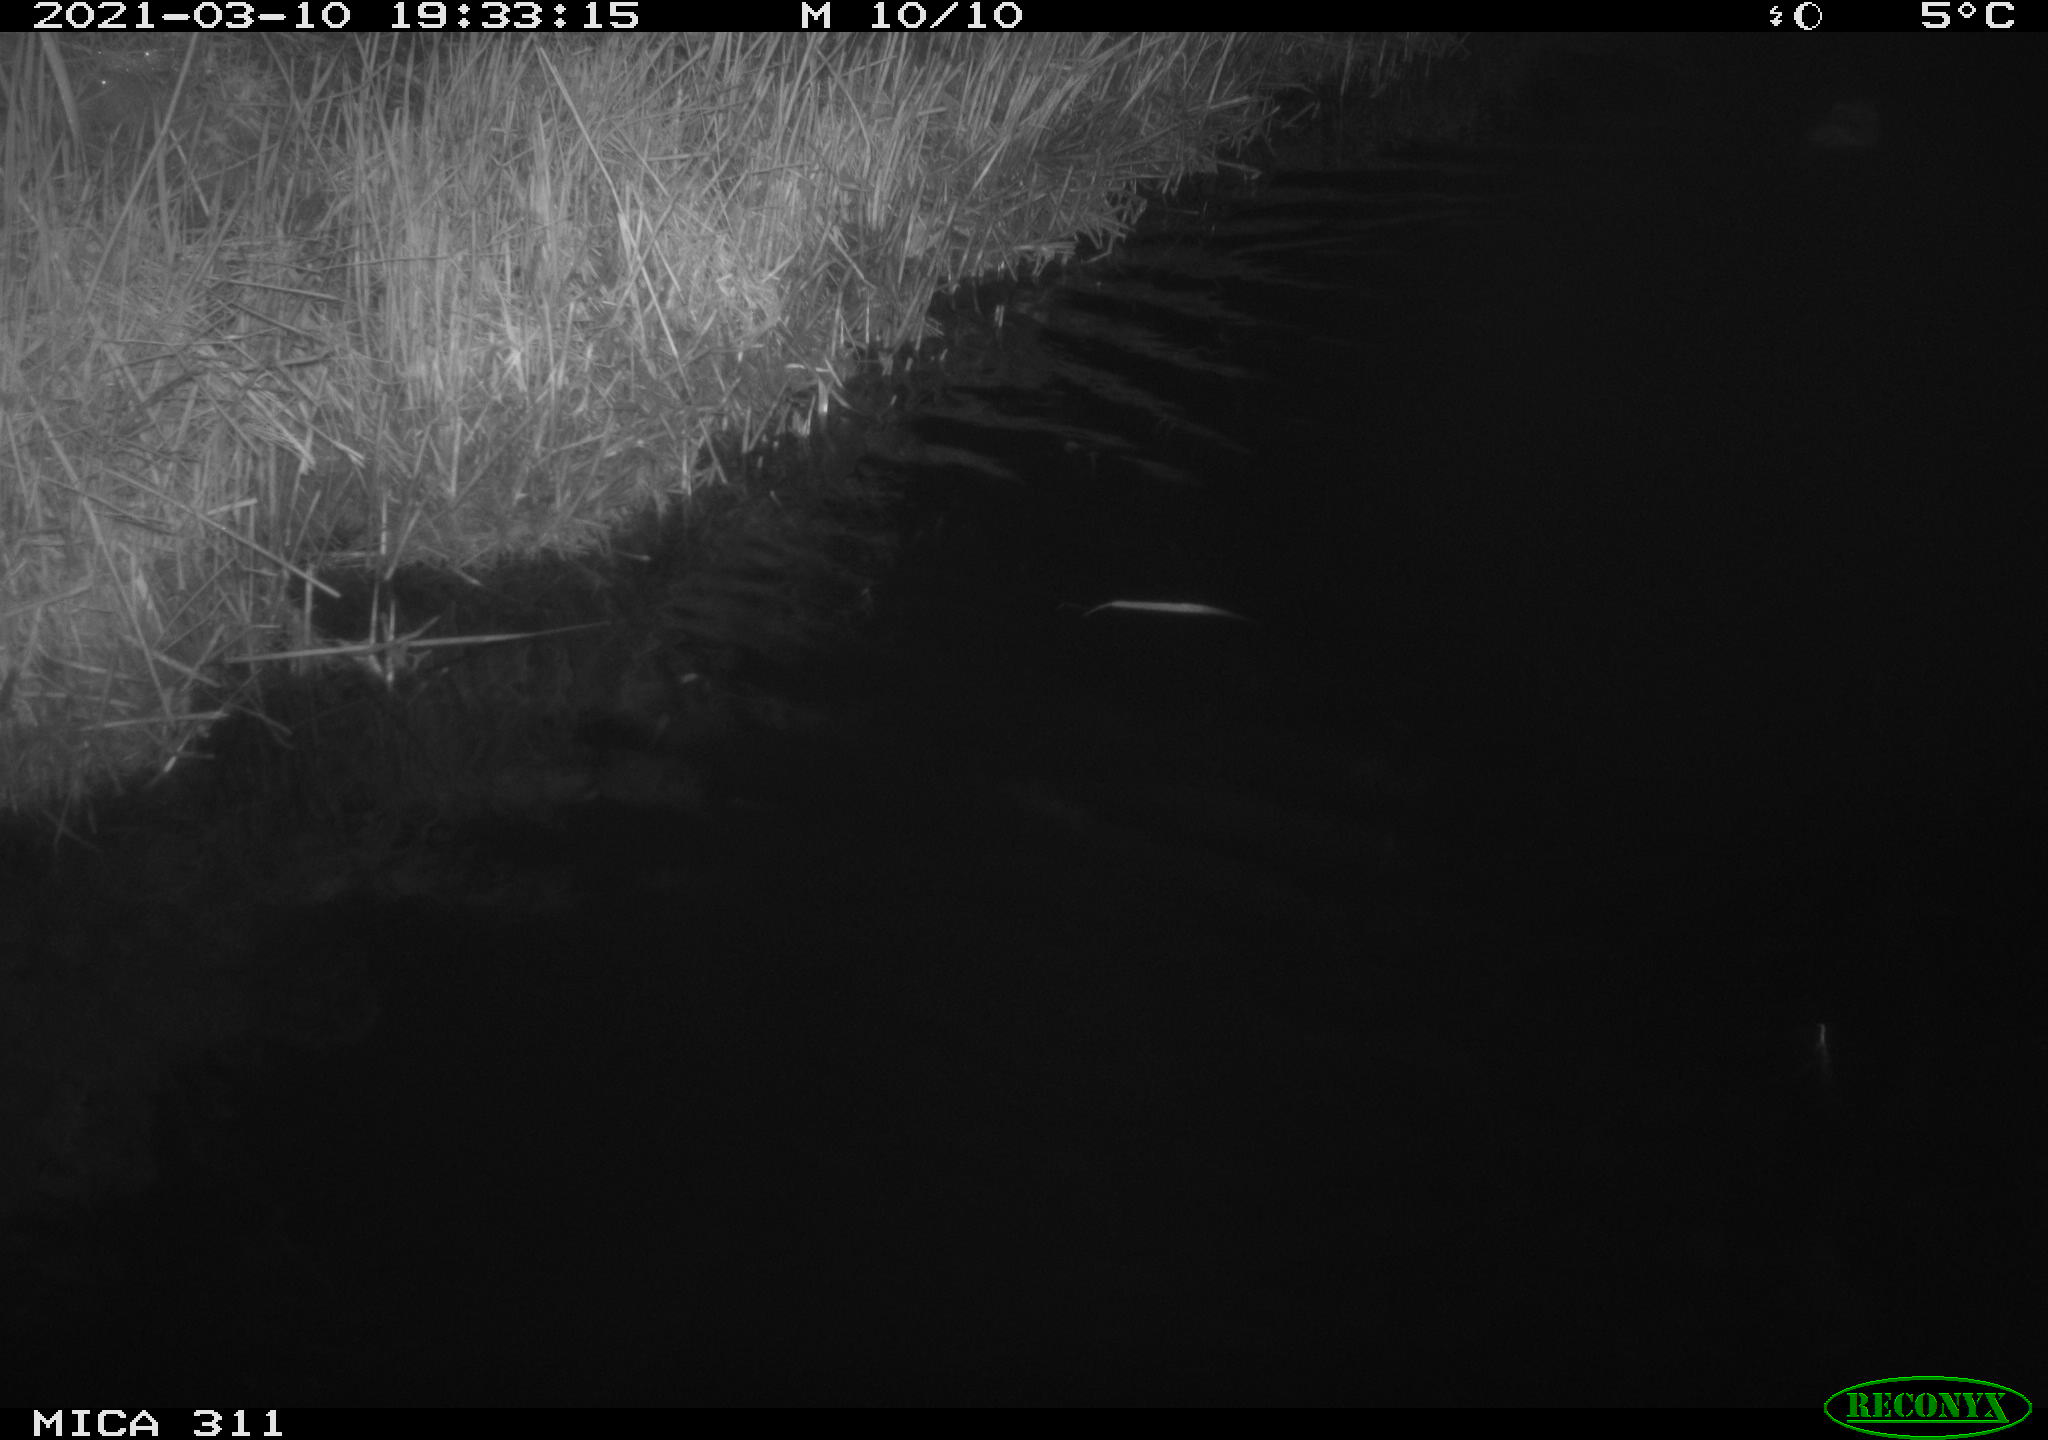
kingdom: Animalia
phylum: Chordata
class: Mammalia
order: Rodentia
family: Cricetidae
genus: Ondatra
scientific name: Ondatra zibethicus
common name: Muskrat
